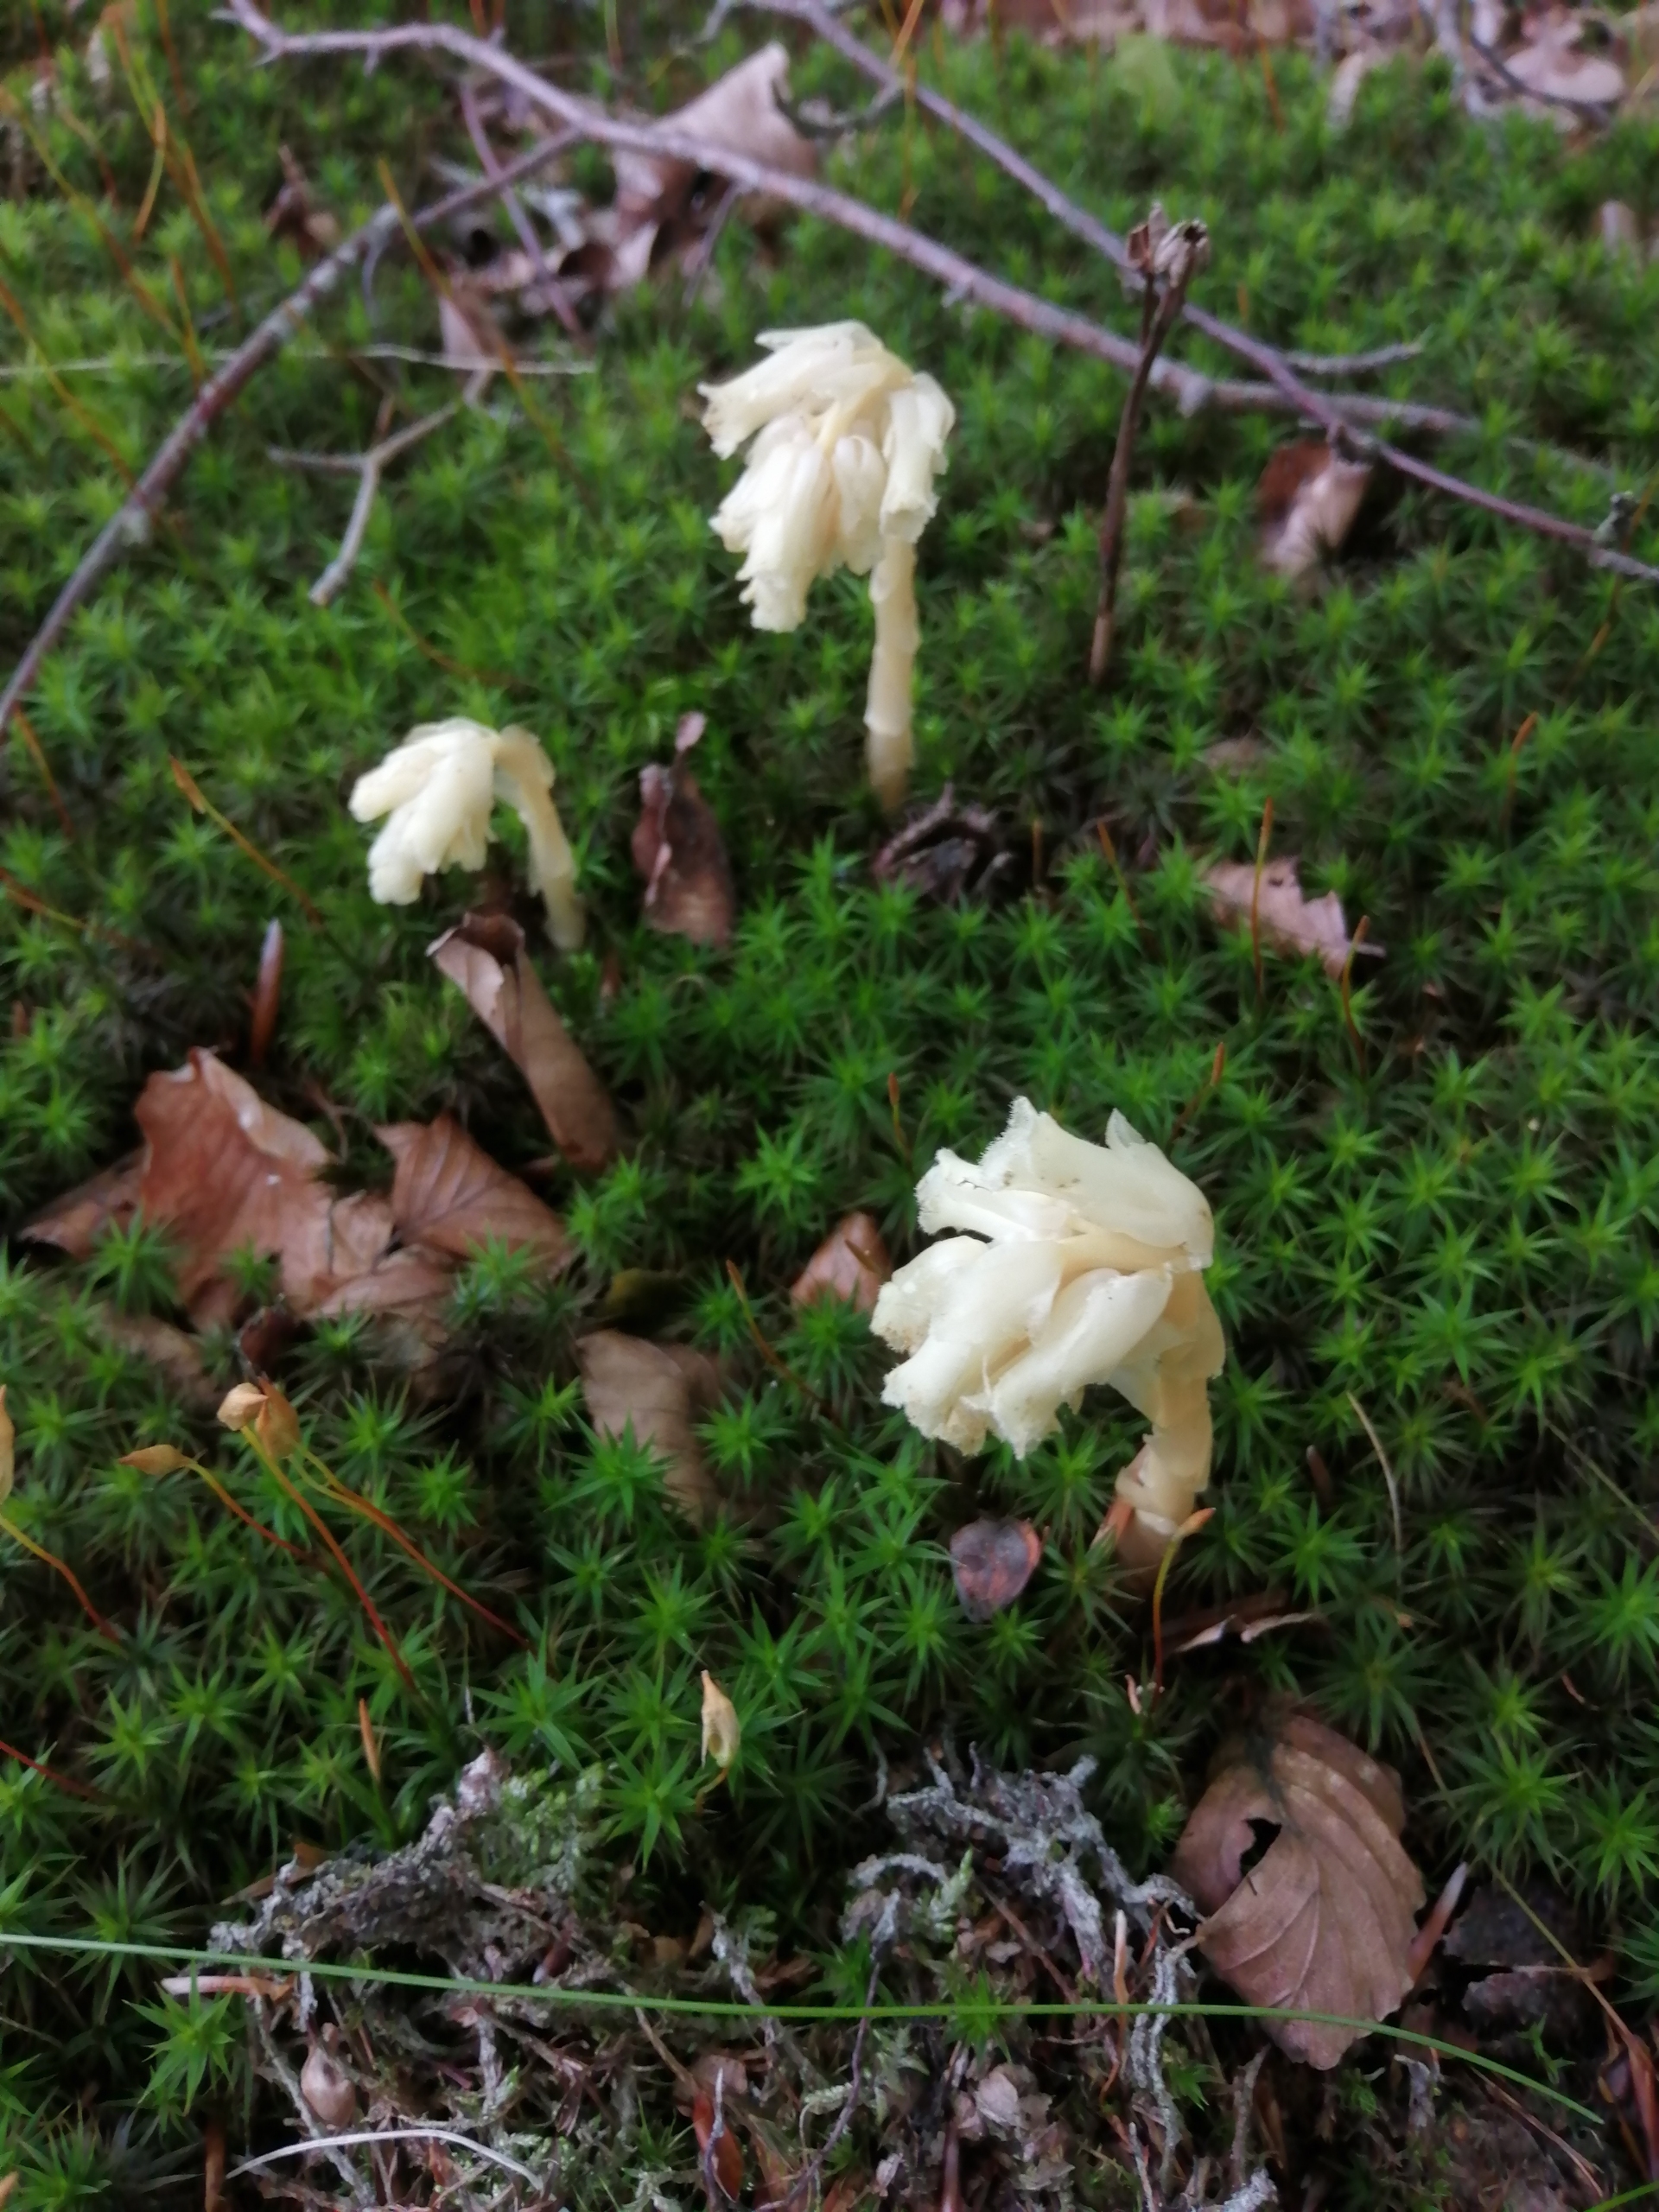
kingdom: Plantae
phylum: Tracheophyta
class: Magnoliopsida
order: Ericales
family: Ericaceae
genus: Hypopitys
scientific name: Hypopitys monotropa
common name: Snylterod
